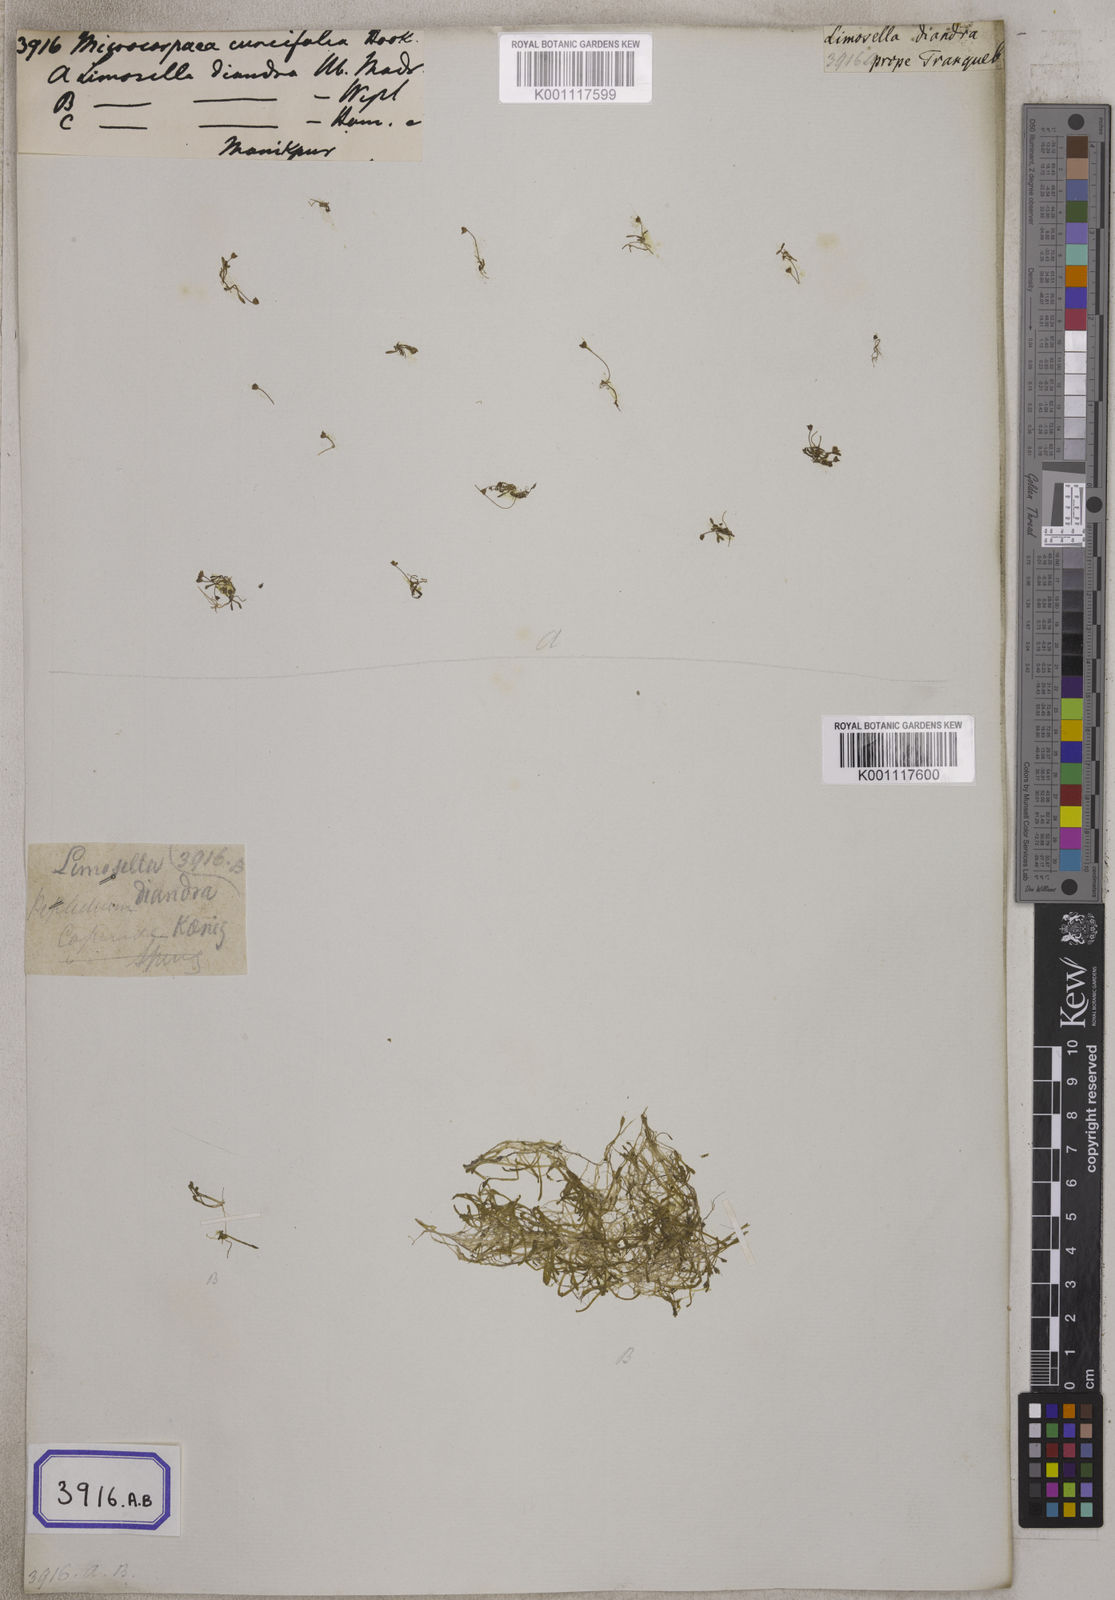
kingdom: Plantae
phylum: Tracheophyta
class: Magnoliopsida
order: Lamiales
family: Phrymaceae
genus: Glossostigma
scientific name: Glossostigma diandrum
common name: Mudmat
